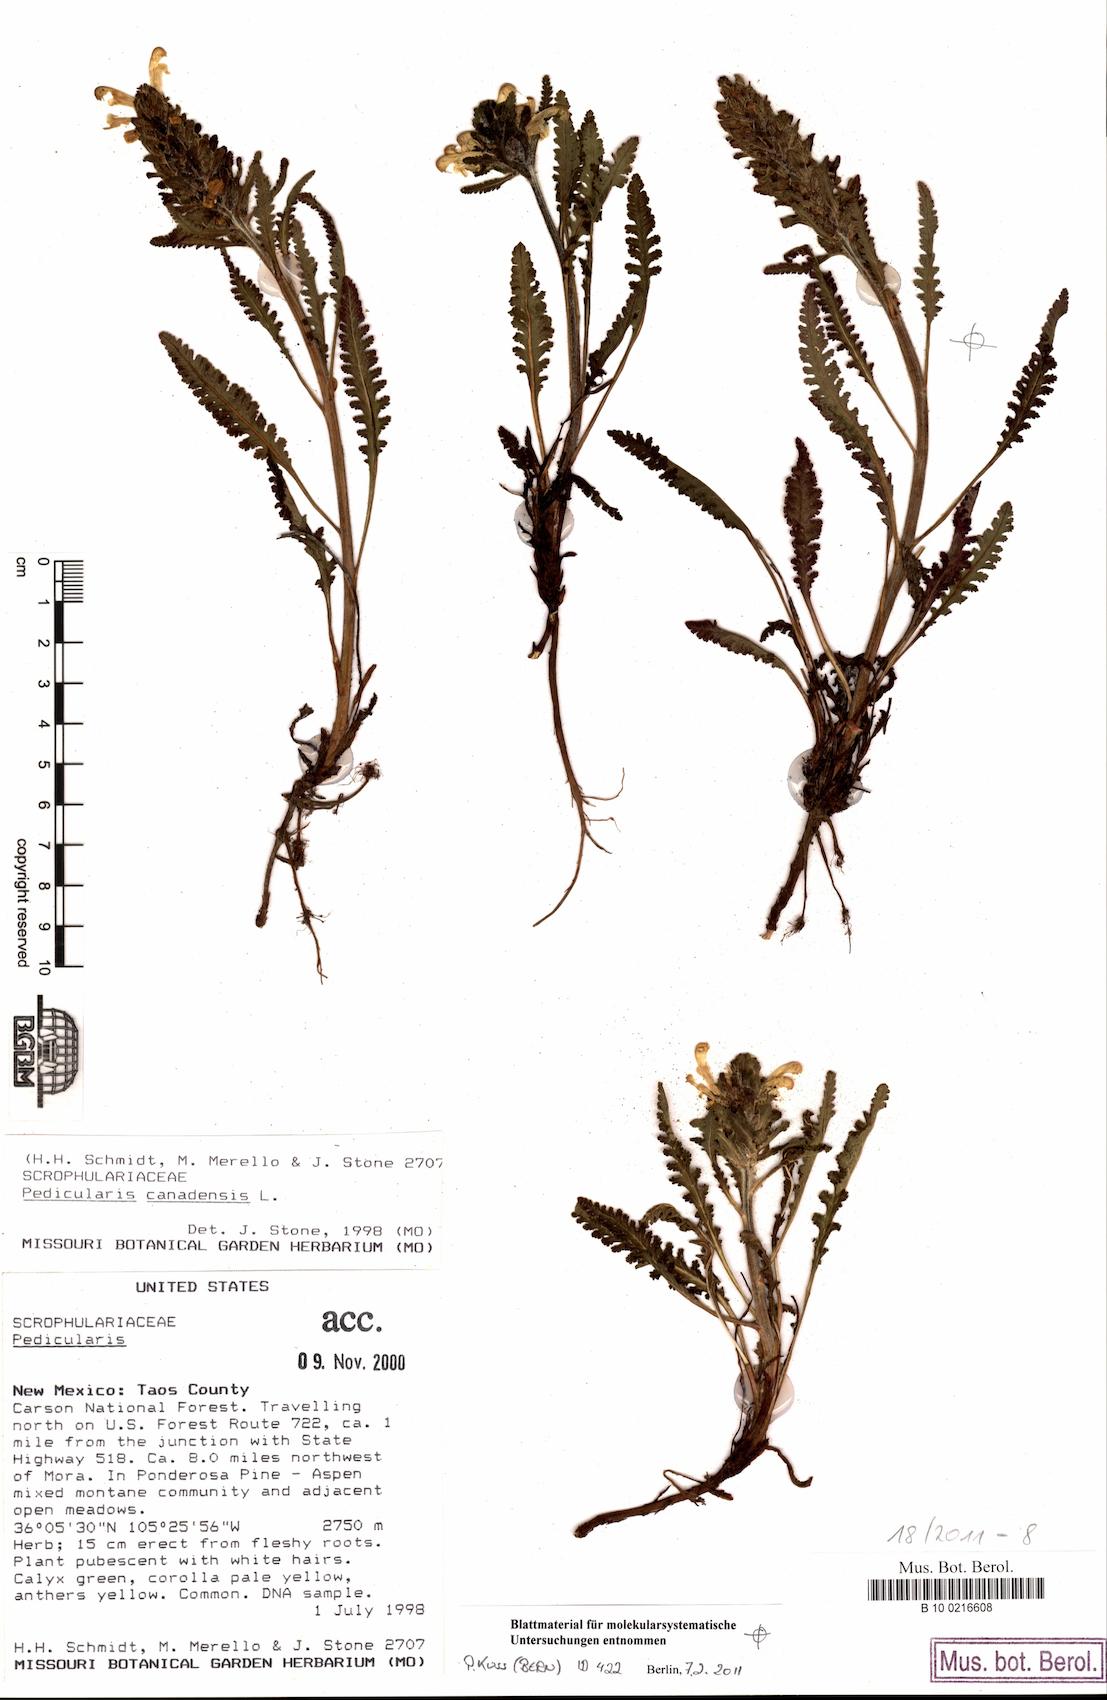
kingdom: Plantae
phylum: Tracheophyta
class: Magnoliopsida
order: Lamiales
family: Orobanchaceae
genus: Pedicularis
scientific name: Pedicularis canadensis
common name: Early lousewort
